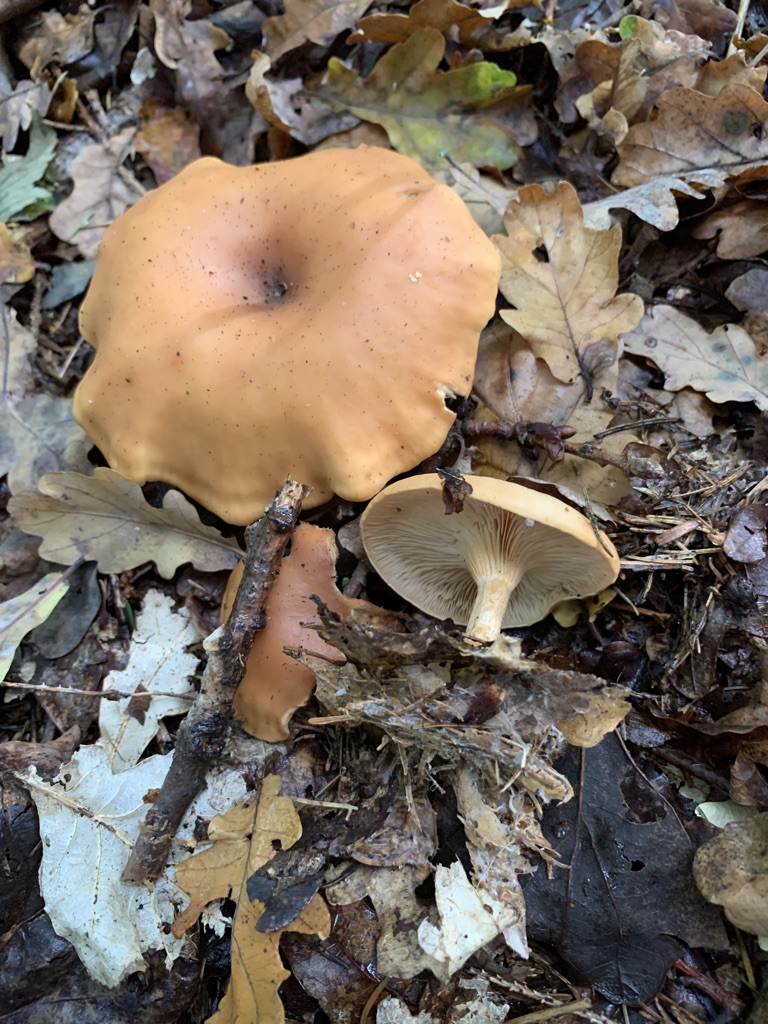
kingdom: Fungi
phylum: Basidiomycota
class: Agaricomycetes
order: Agaricales
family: Tricholomataceae
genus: Paralepista
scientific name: Paralepista flaccida
